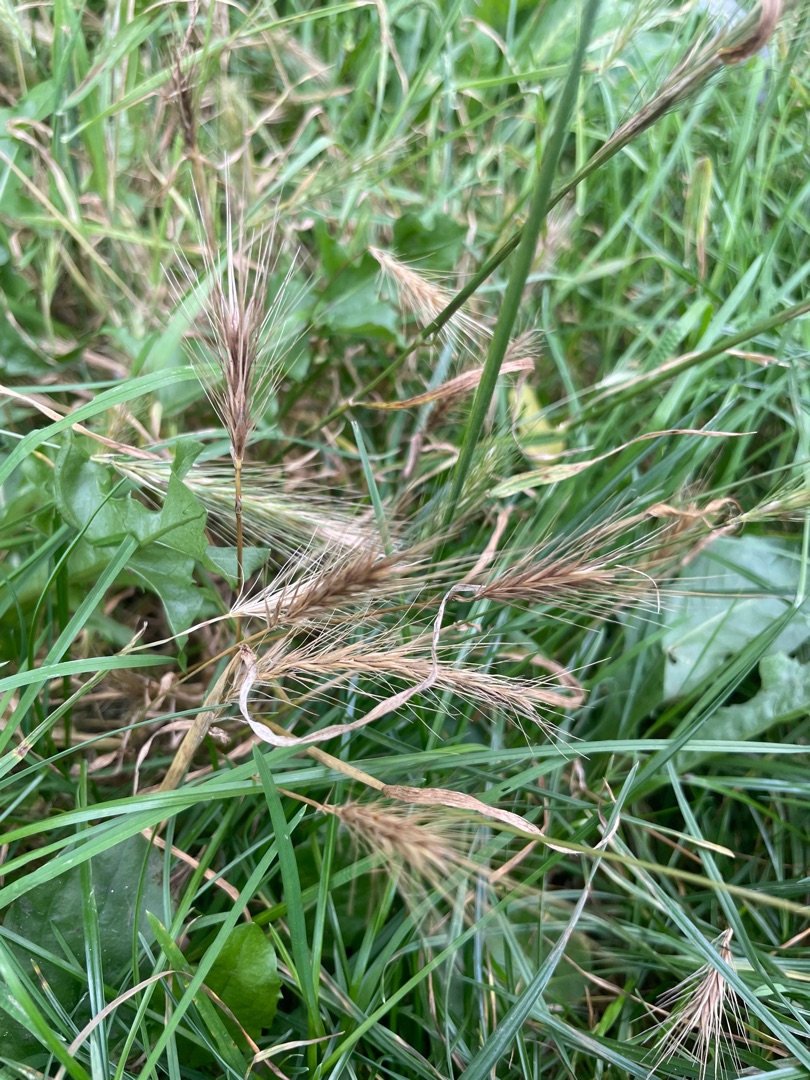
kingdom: Plantae
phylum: Tracheophyta
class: Liliopsida
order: Poales
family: Poaceae
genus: Hordeum
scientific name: Hordeum murinum
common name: Gold byg
